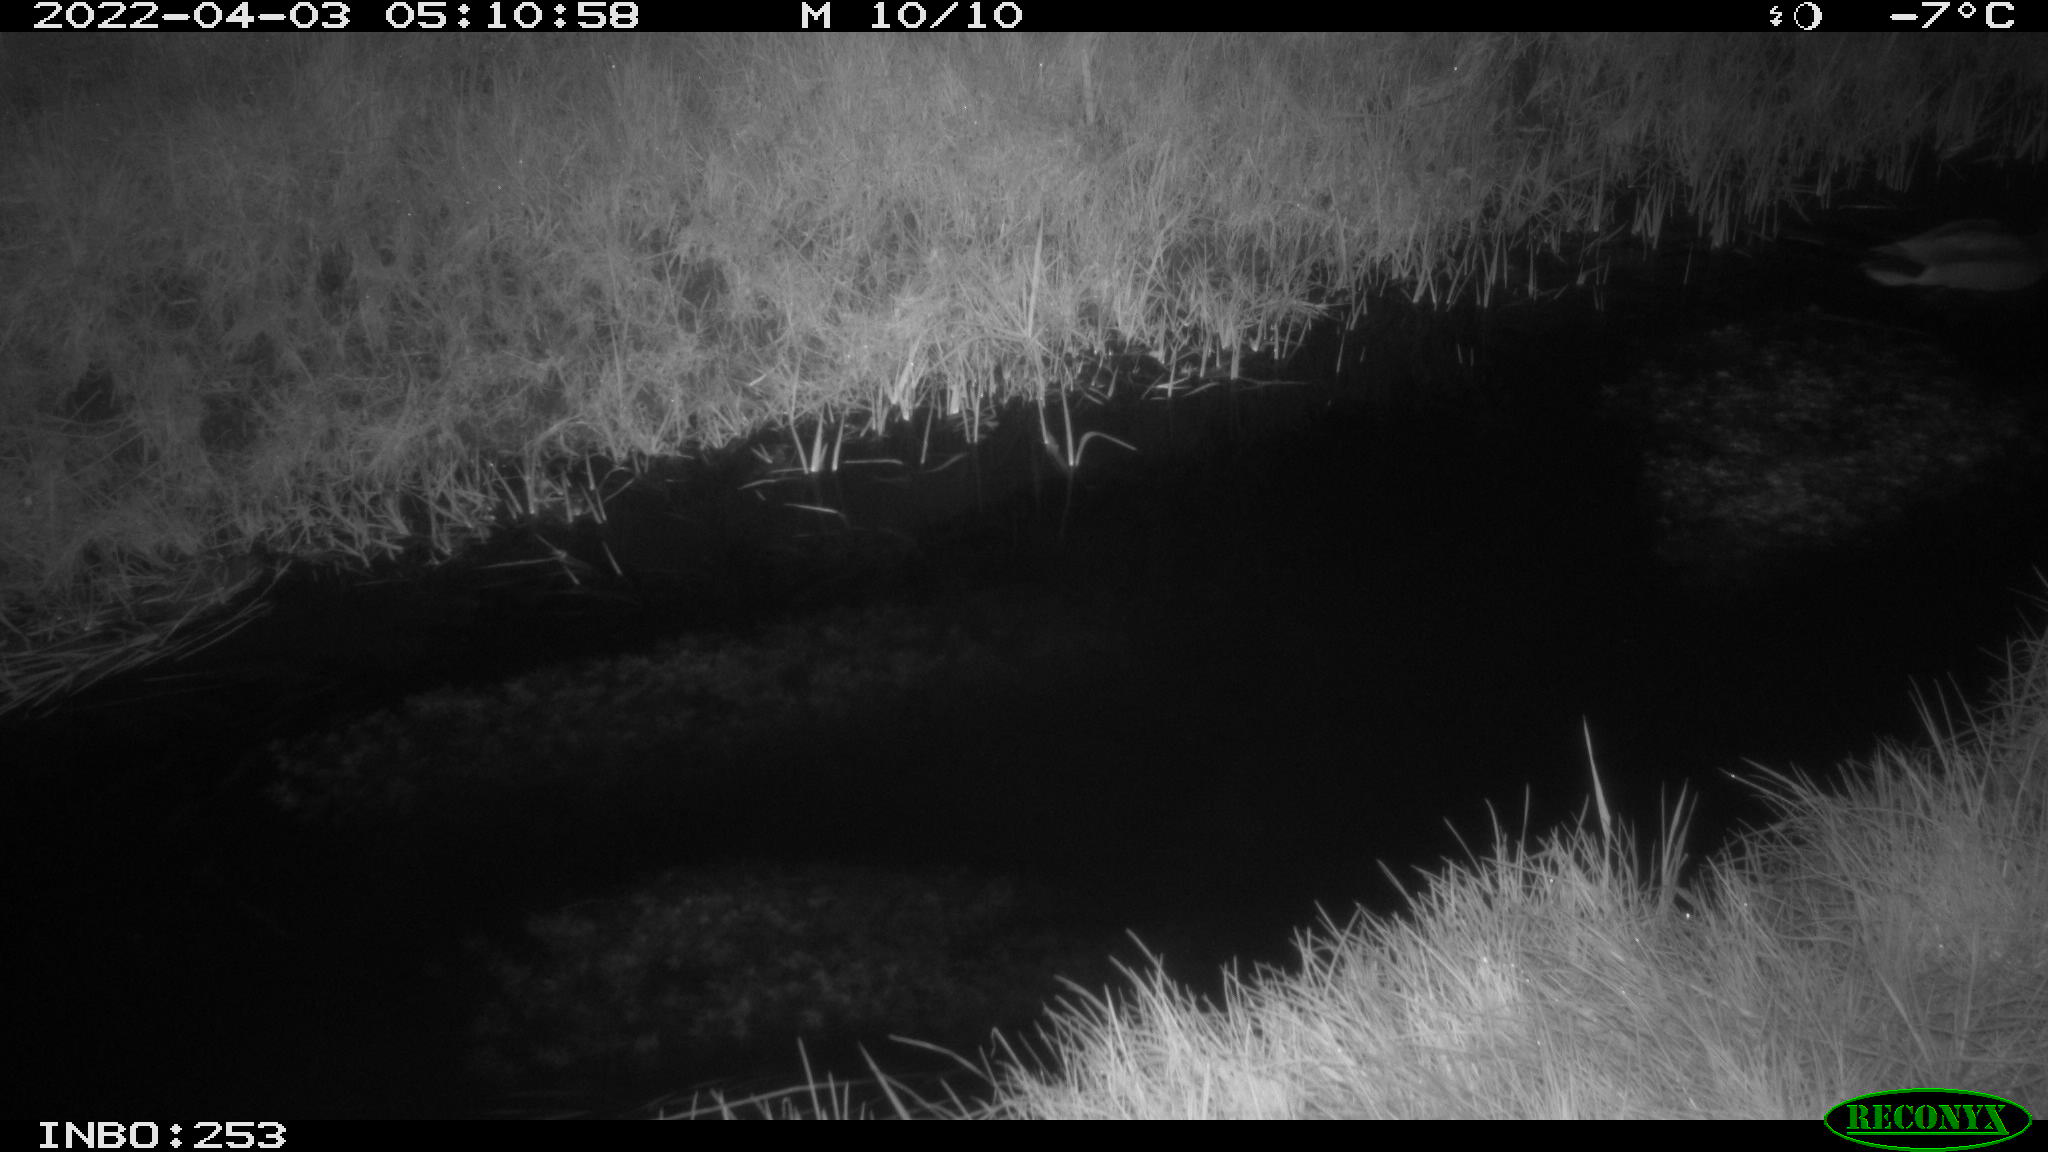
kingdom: Animalia
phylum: Chordata
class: Aves
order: Anseriformes
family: Anatidae
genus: Anas
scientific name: Anas platyrhynchos
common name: Mallard
